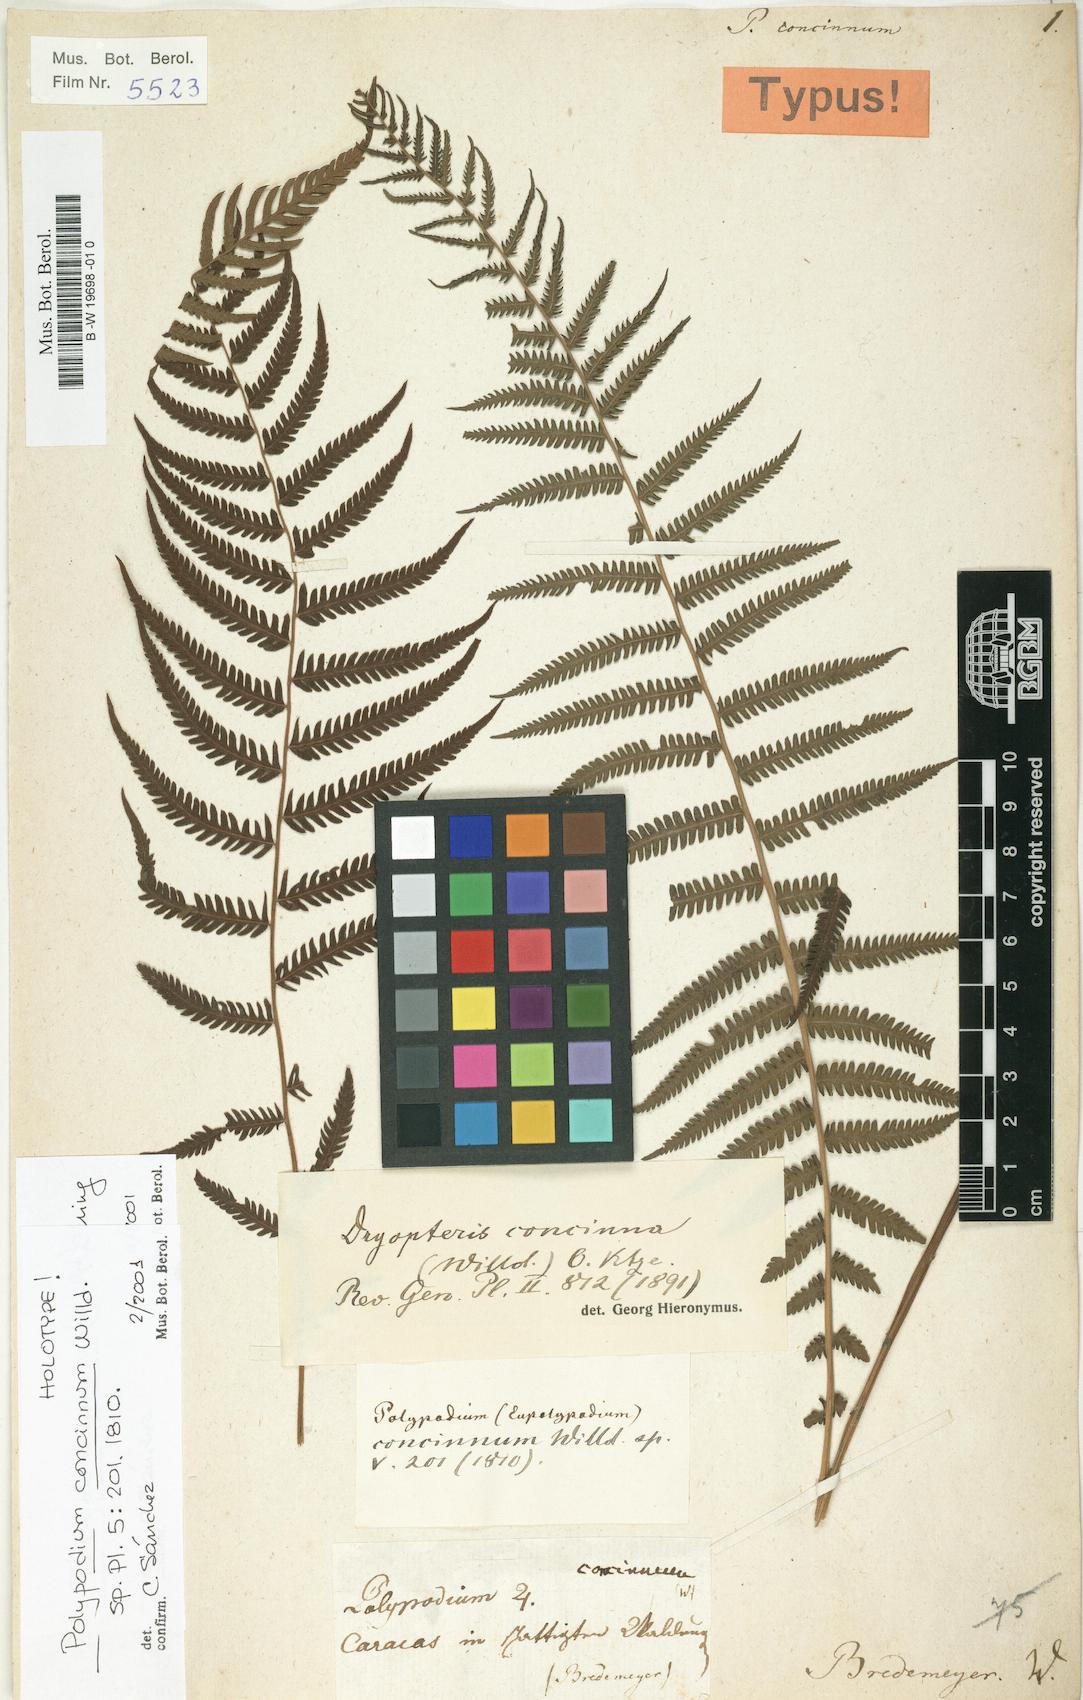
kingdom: Plantae
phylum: Tracheophyta
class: Polypodiopsida
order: Polypodiales
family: Thelypteridaceae
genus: Amauropelta
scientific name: Amauropelta concinna
